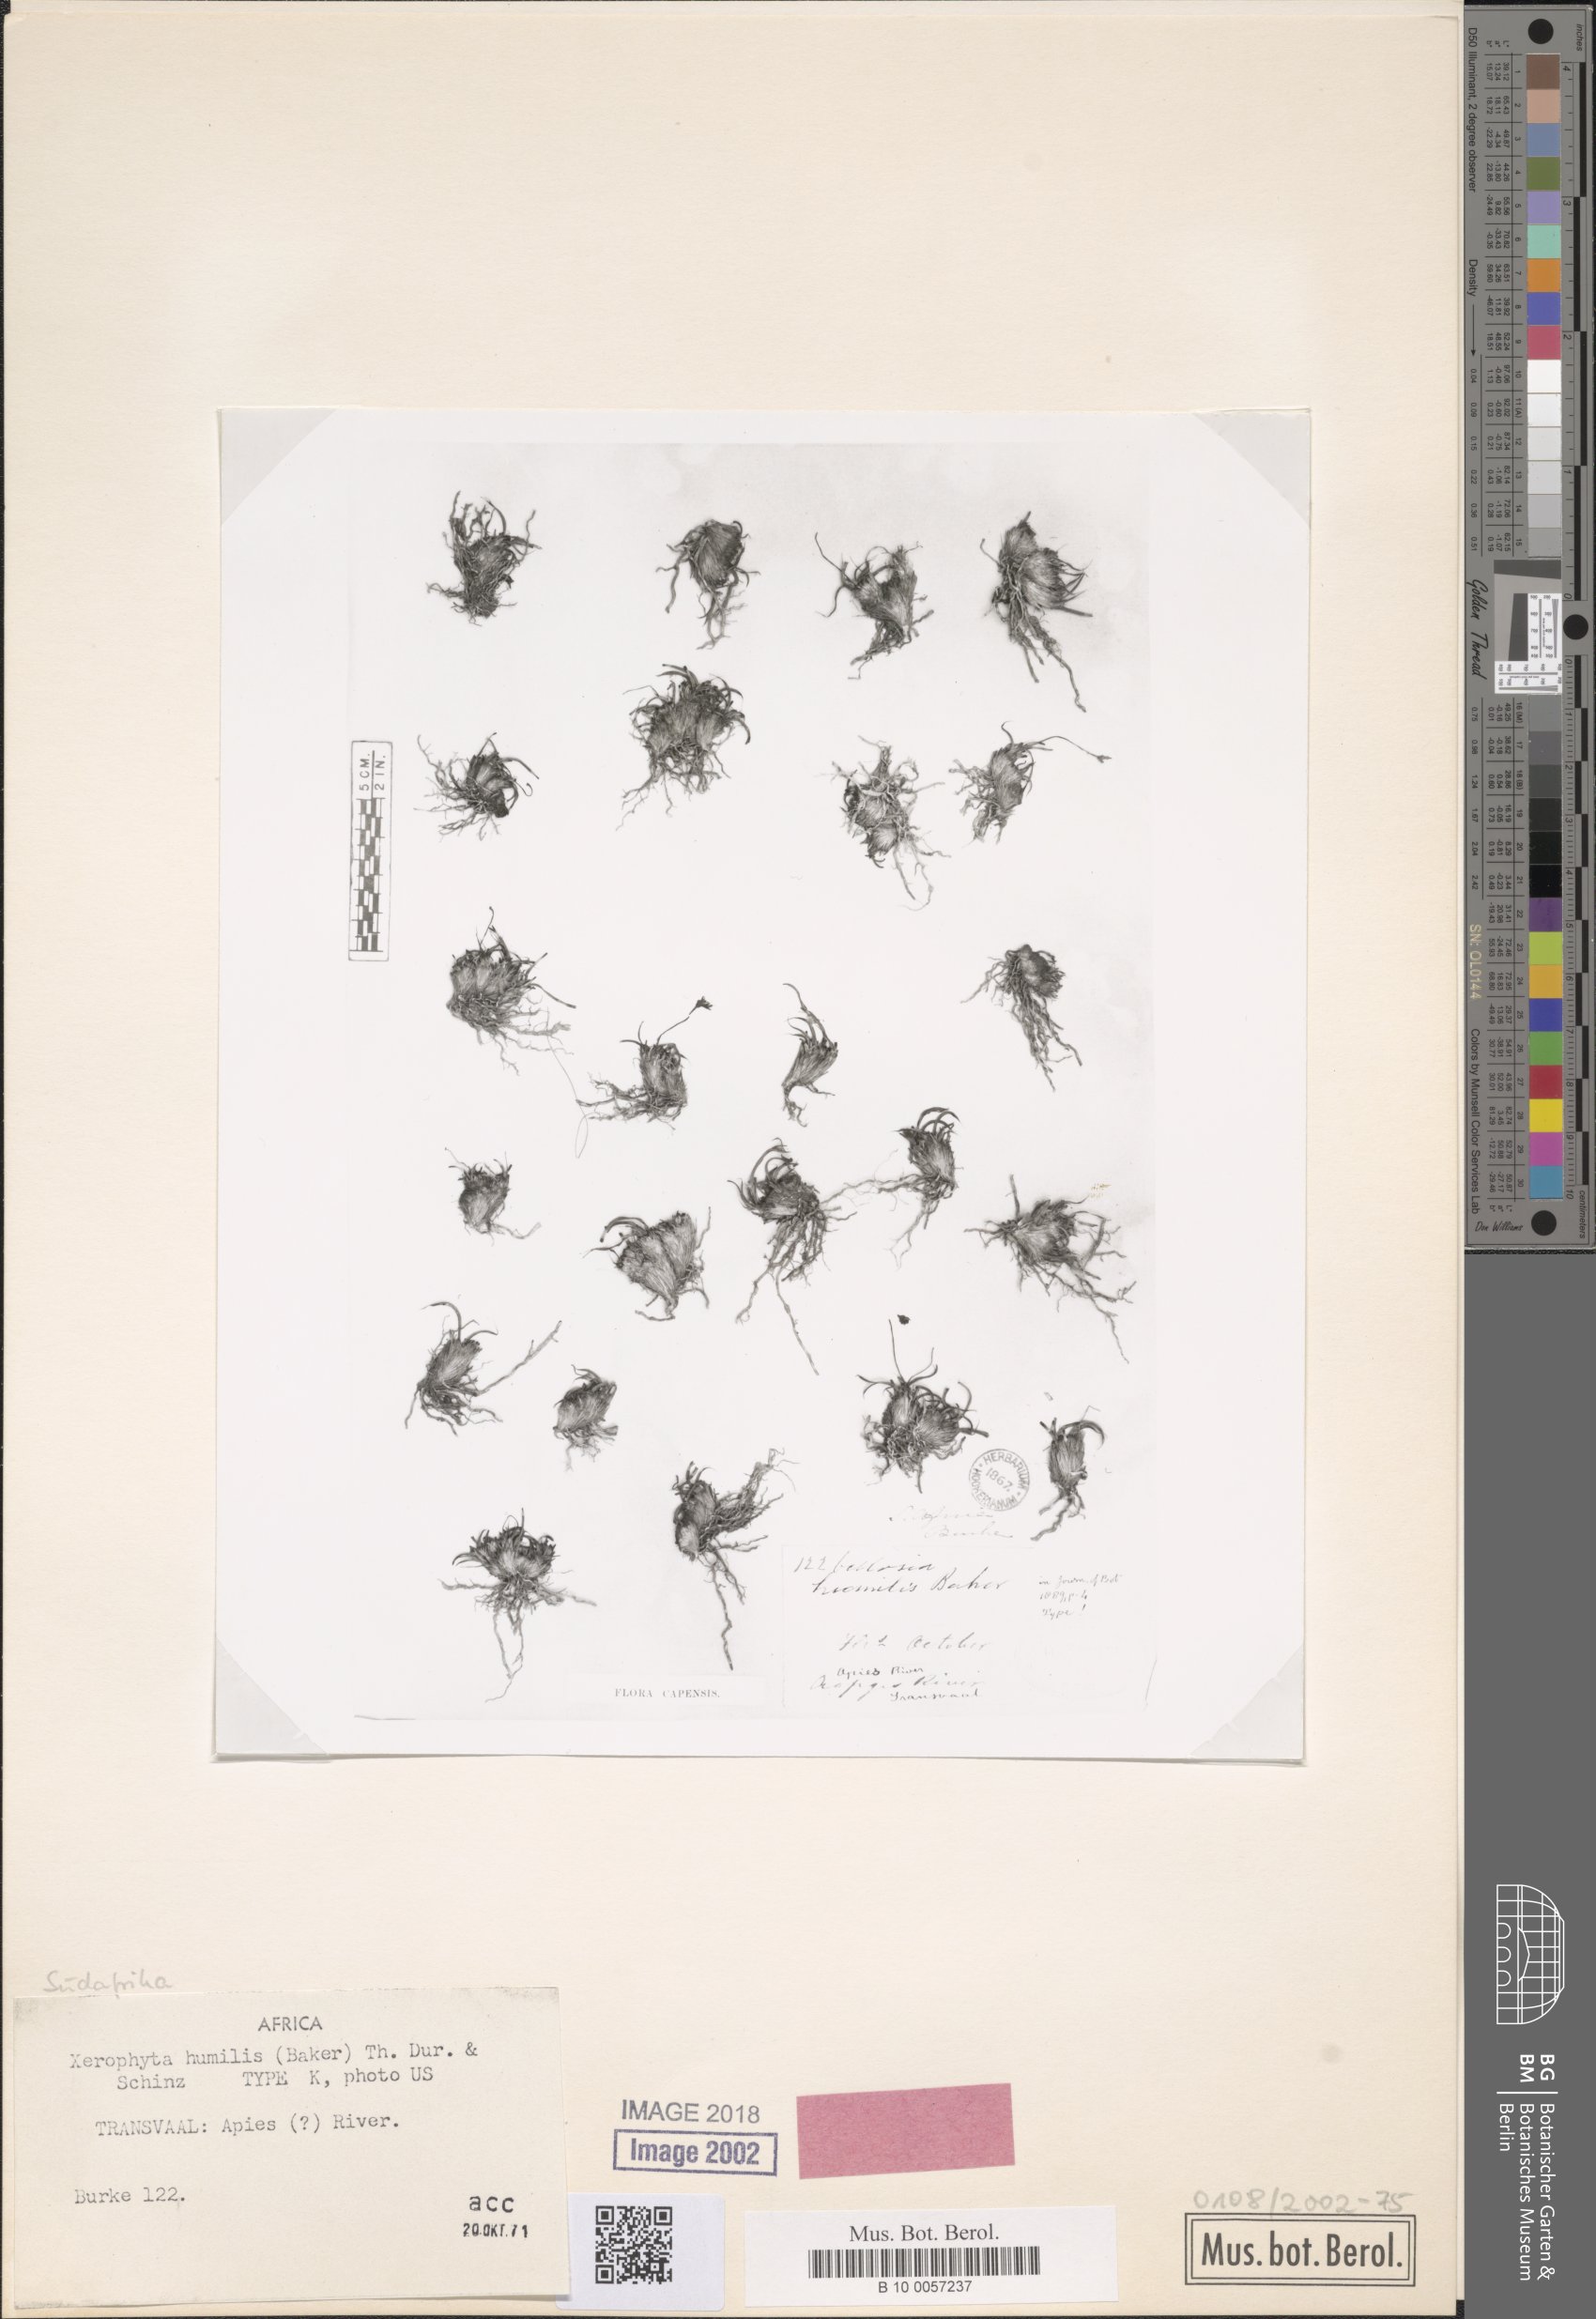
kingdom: Plantae
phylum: Tracheophyta
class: Liliopsida
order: Pandanales
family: Velloziaceae
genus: Xerophyta
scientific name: Xerophyta humilis
